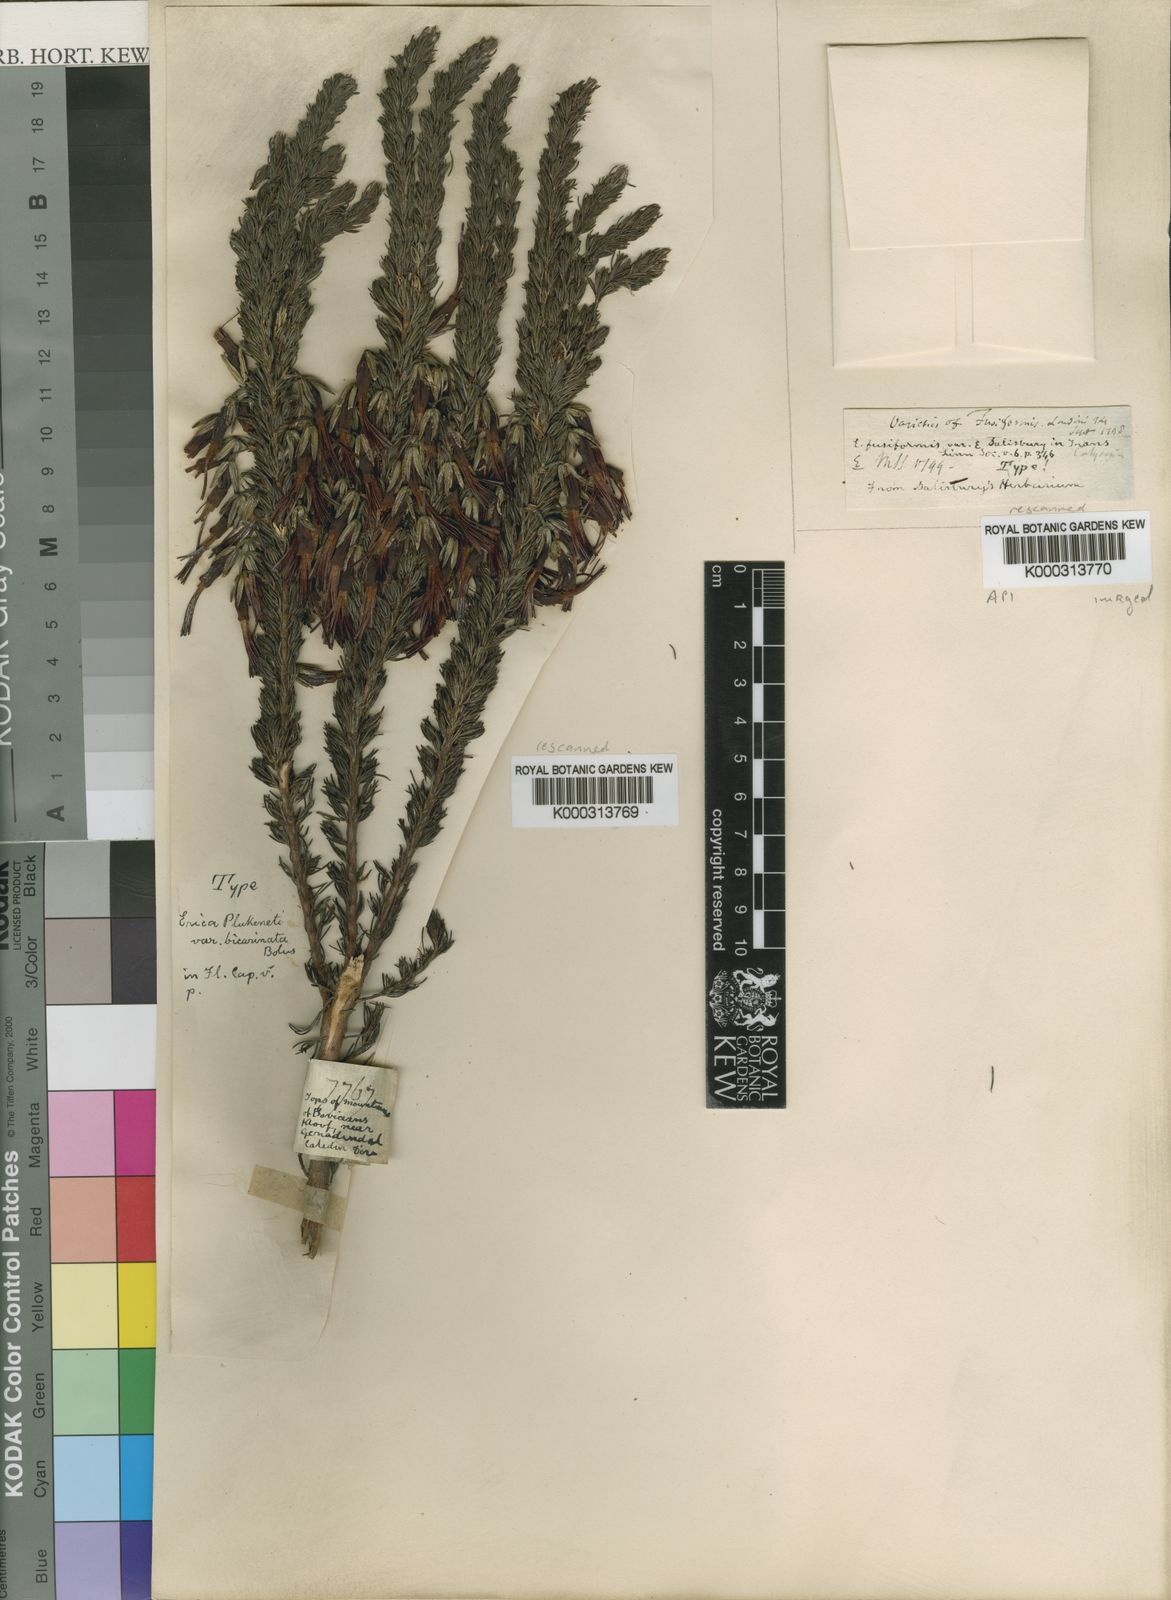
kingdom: Plantae
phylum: Tracheophyta
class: Magnoliopsida
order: Ericales
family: Ericaceae
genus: Erica
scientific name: Erica plukenetii
